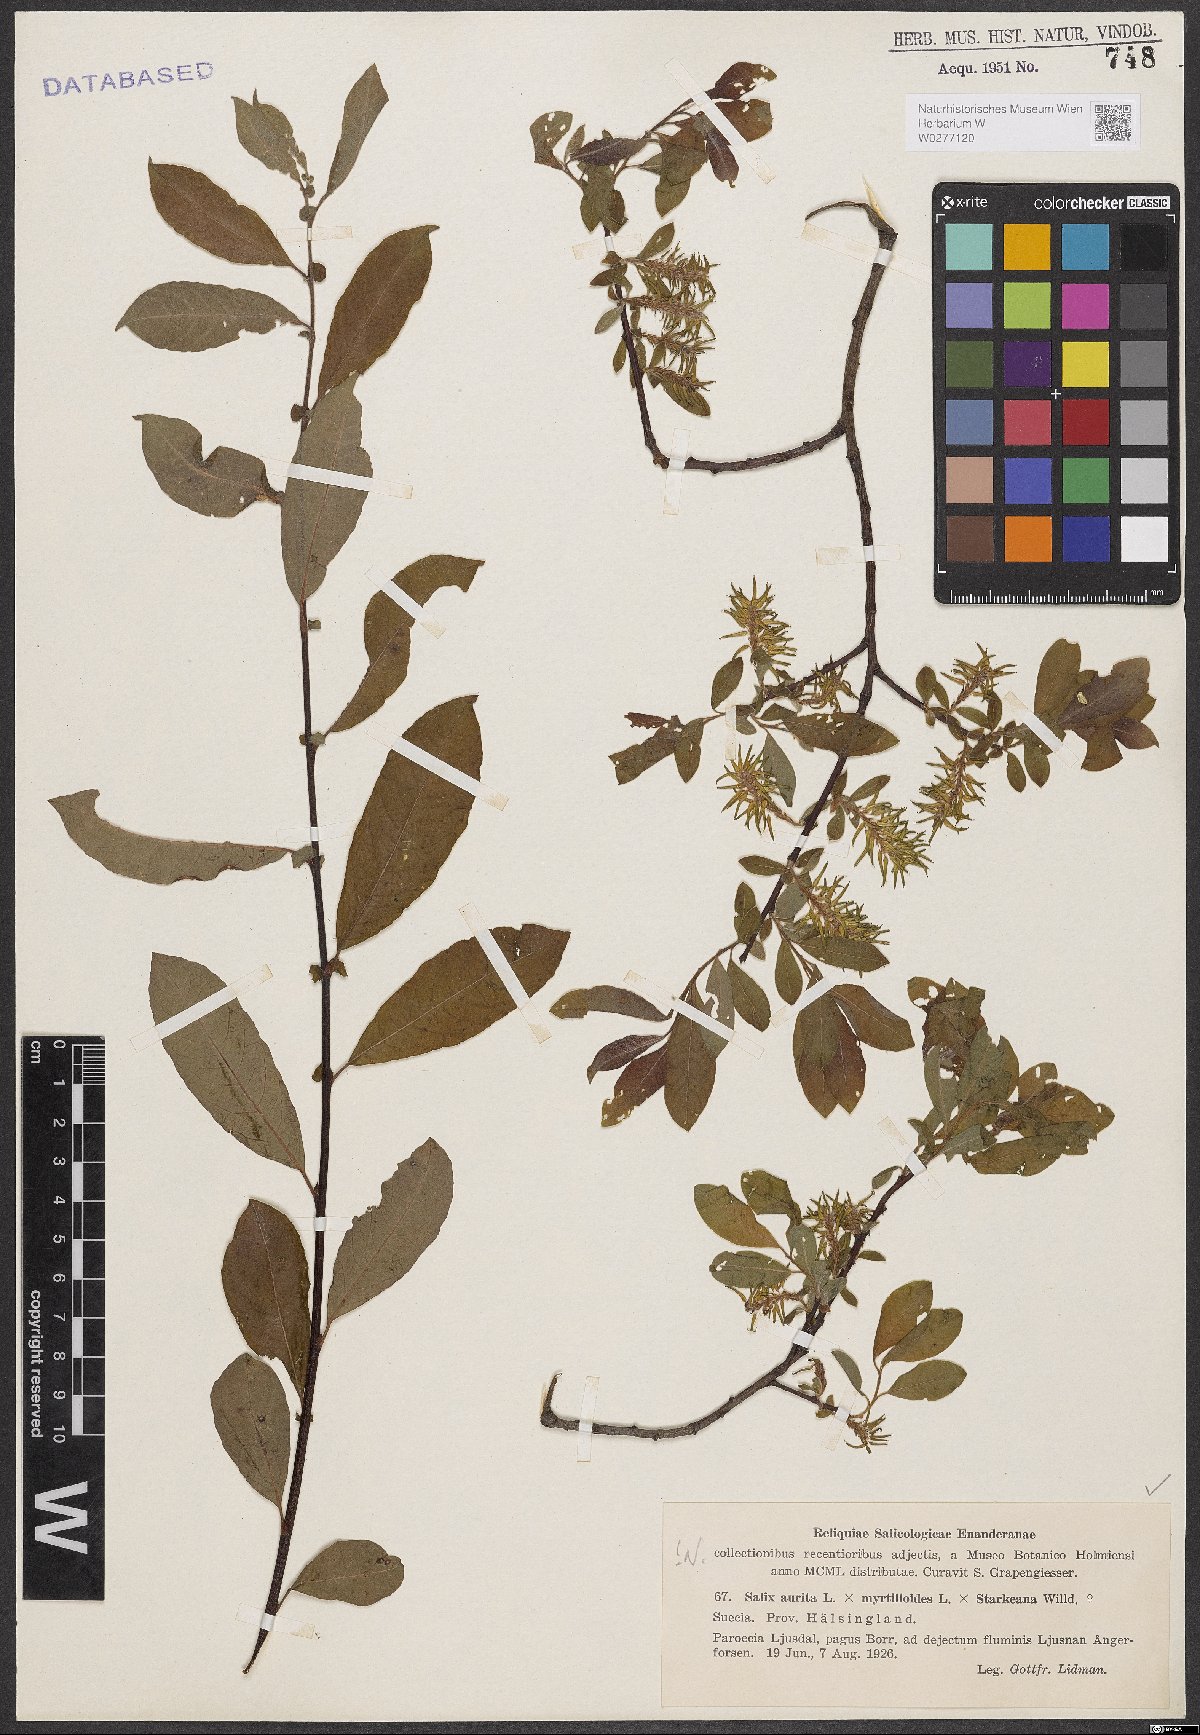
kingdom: Plantae
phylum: Tracheophyta
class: Magnoliopsida
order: Malpighiales
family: Salicaceae
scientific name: Salicaceae
